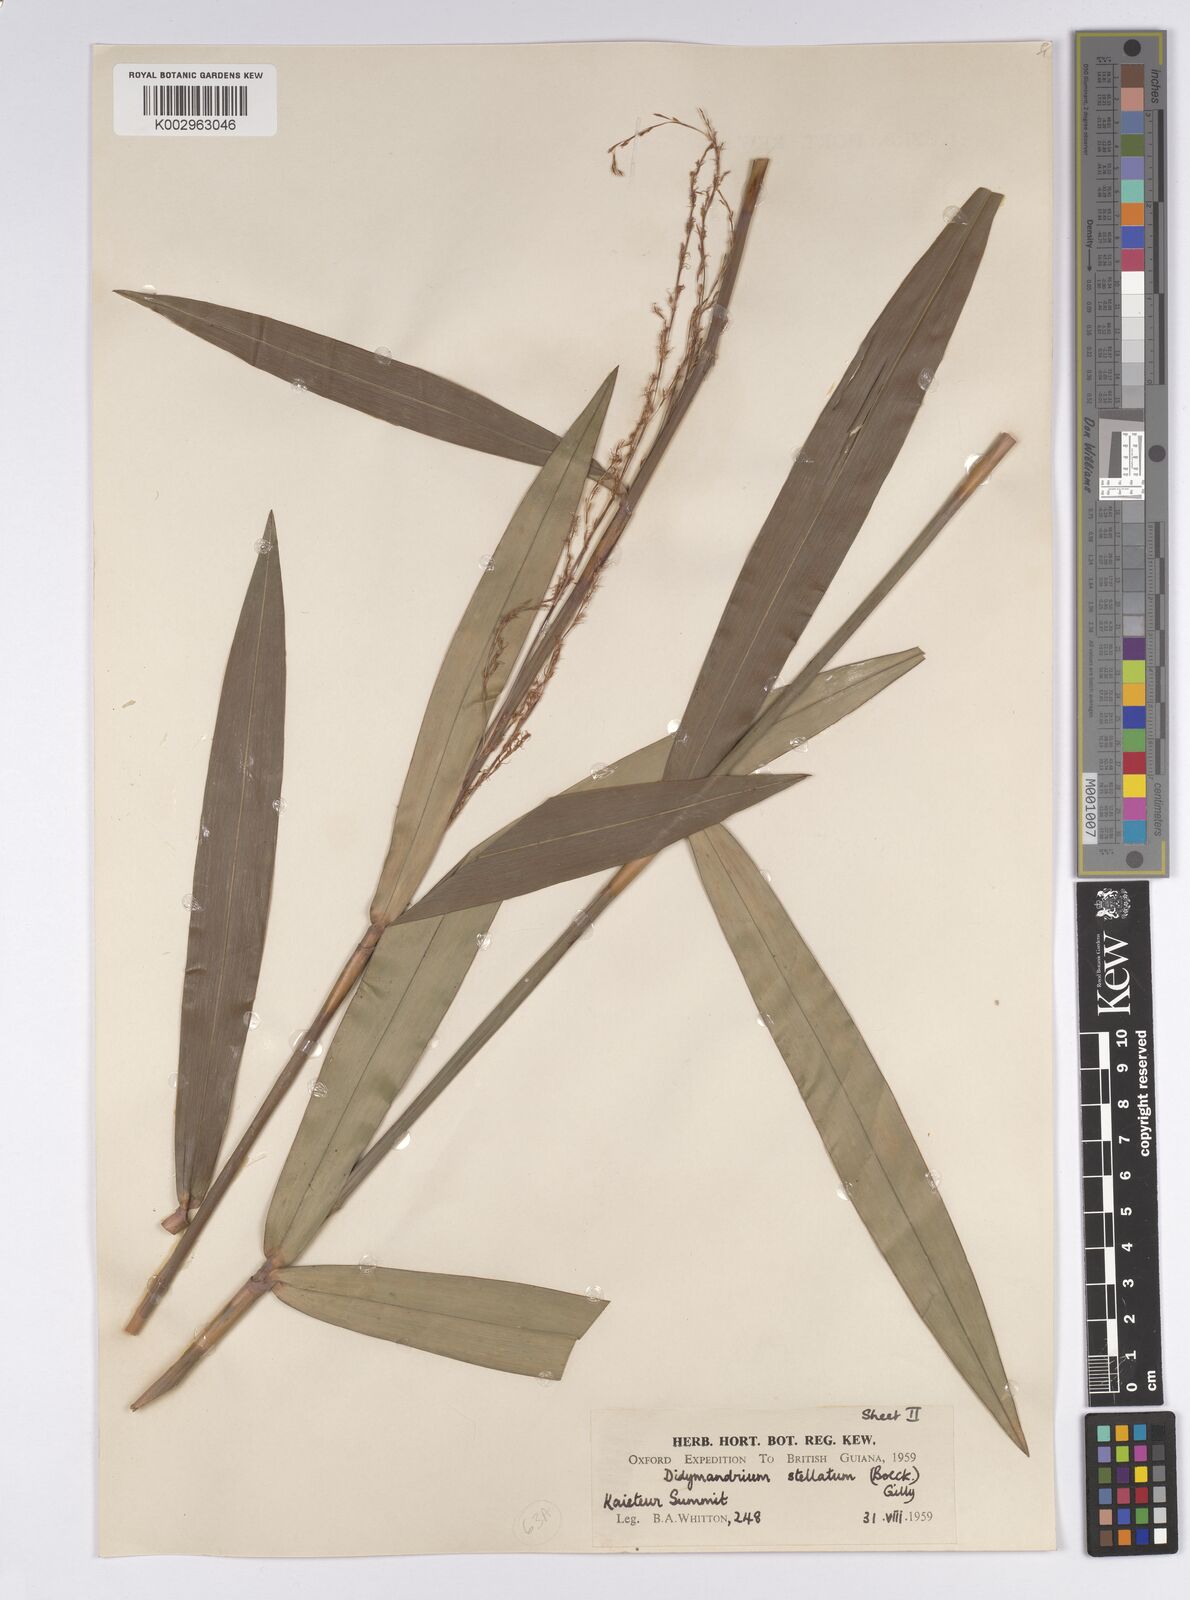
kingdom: Plantae
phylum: Tracheophyta
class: Liliopsida
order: Poales
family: Cyperaceae
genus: Didymiandrum
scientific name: Didymiandrum stellatum
